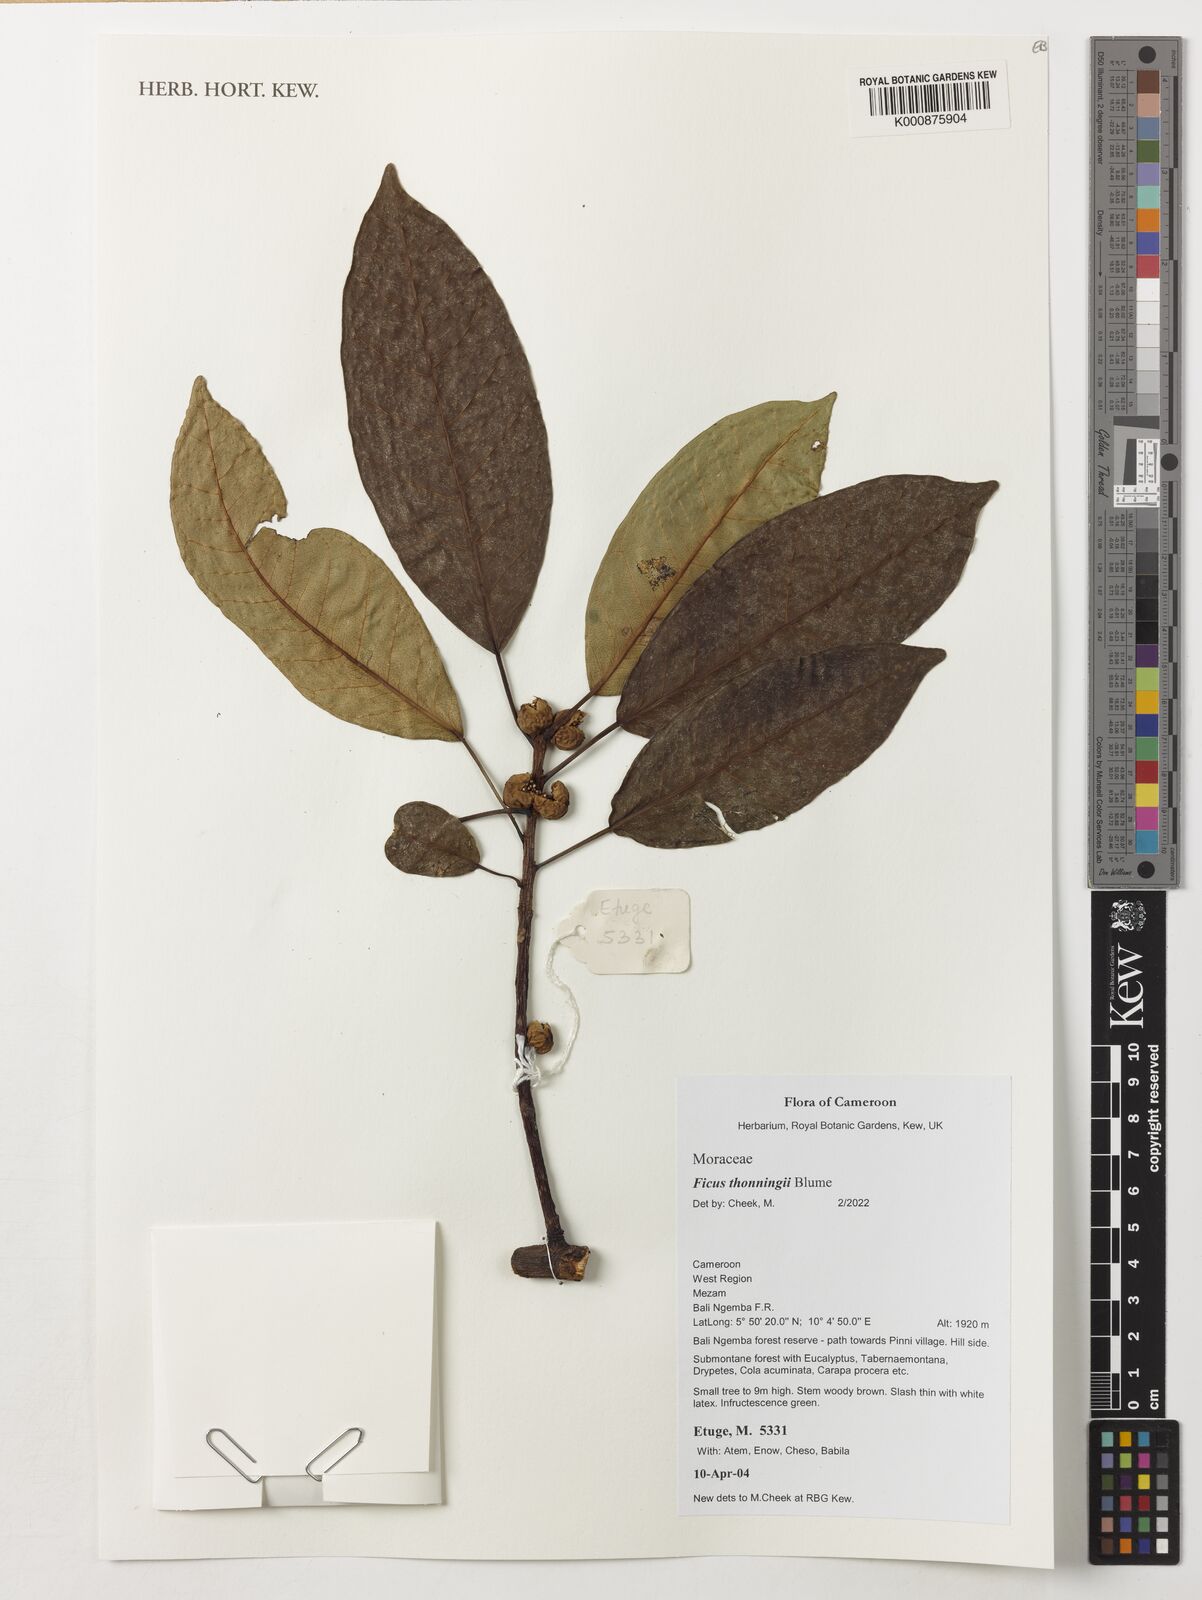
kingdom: Plantae
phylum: Tracheophyta
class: Magnoliopsida
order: Rosales
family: Moraceae
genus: Ficus
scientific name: Ficus thonningii
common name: Fig
